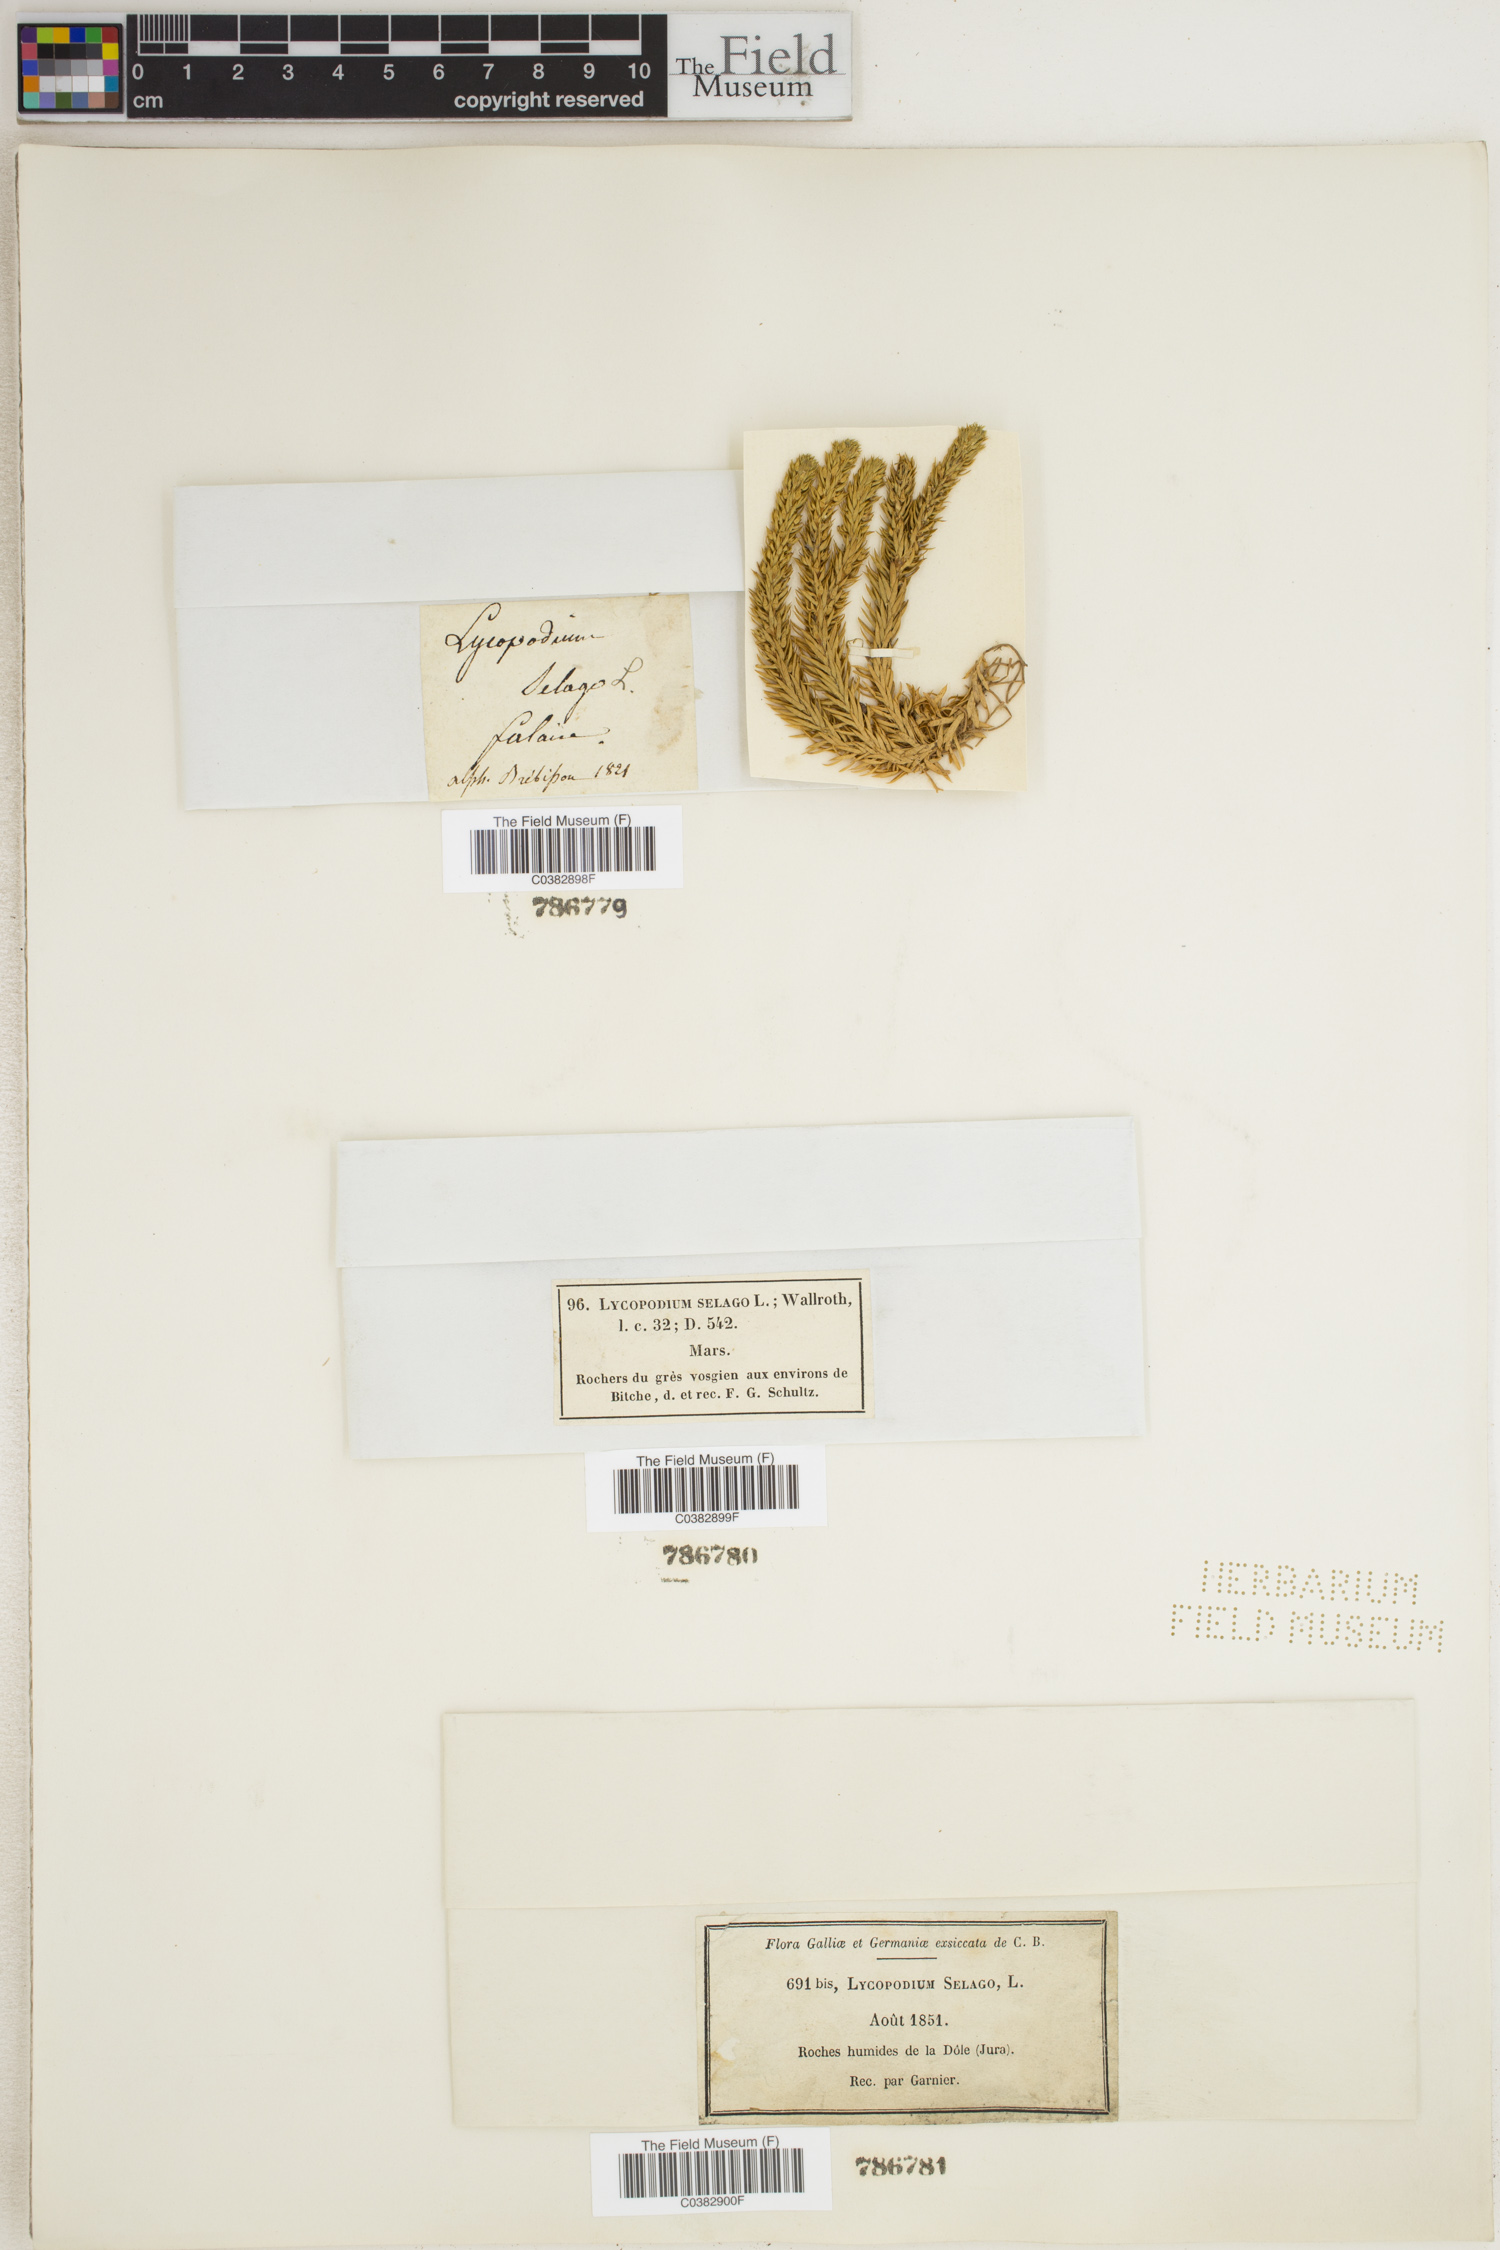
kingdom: Plantae
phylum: Tracheophyta
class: Lycopodiopsida
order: Lycopodiales
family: Lycopodiaceae
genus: Huperzia
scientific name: Huperzia selago
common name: Northern firmoss
